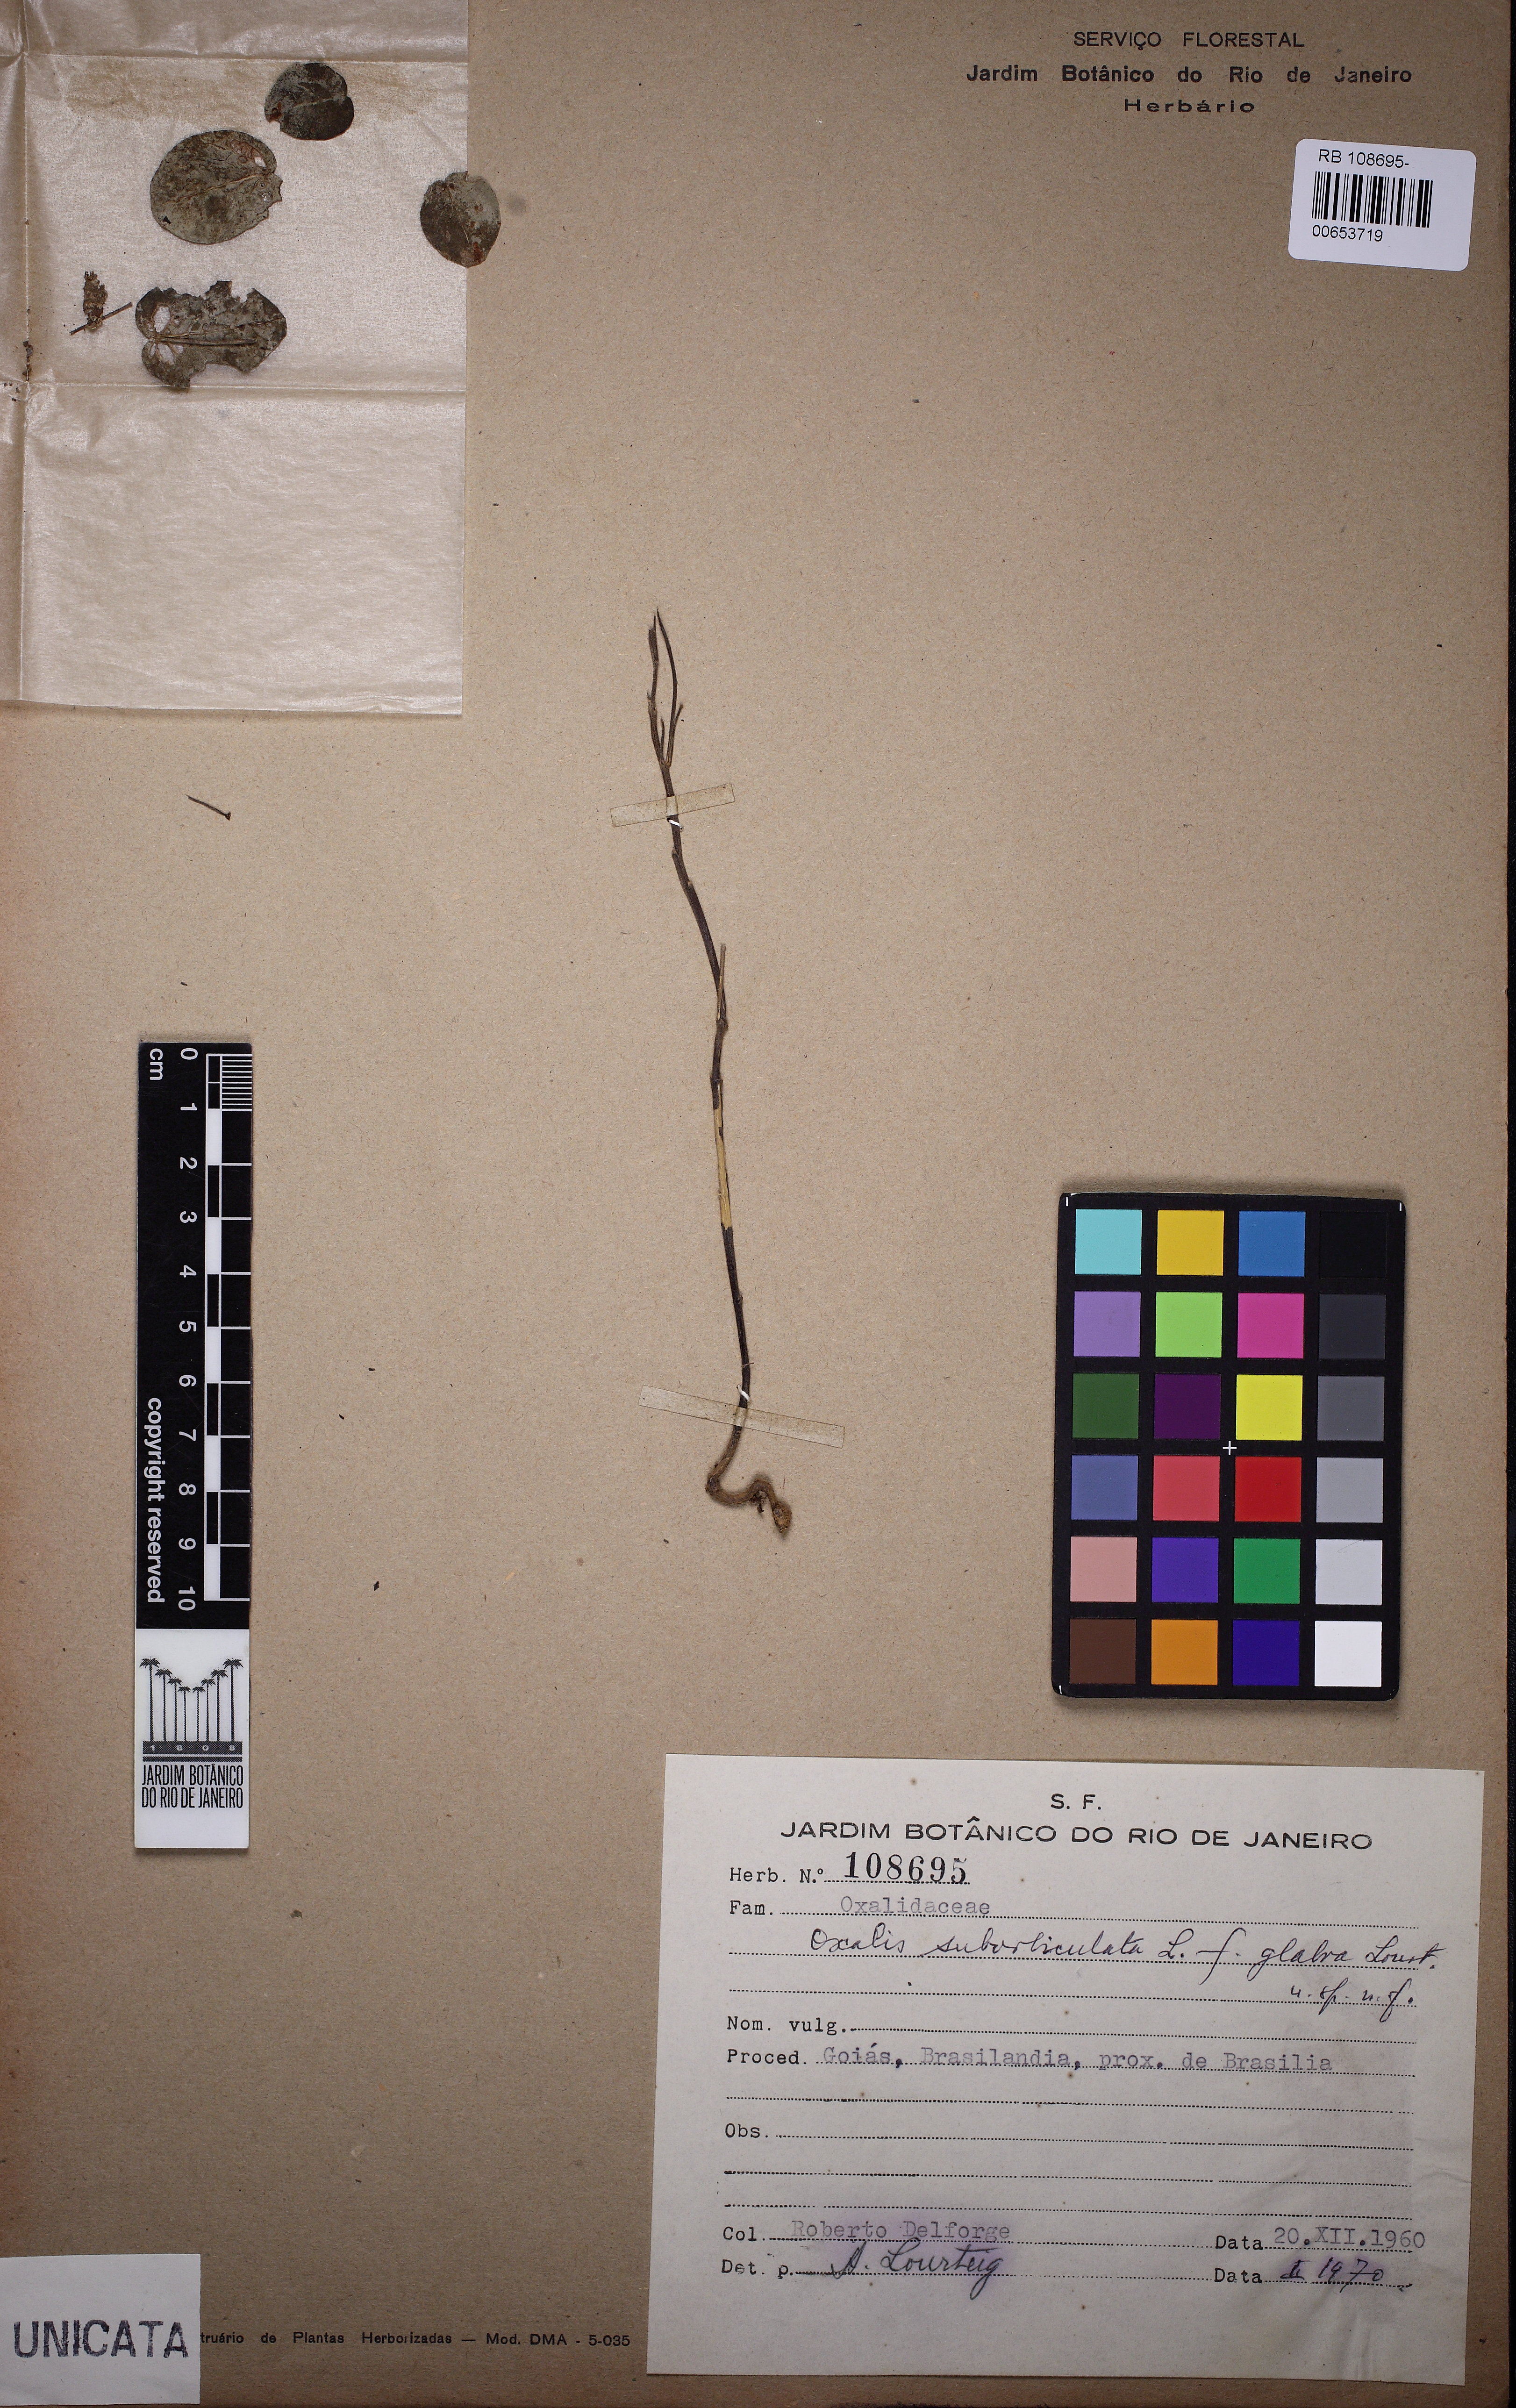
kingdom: Plantae
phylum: Tracheophyta
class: Magnoliopsida
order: Oxalidales
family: Oxalidaceae
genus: Oxalis
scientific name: Oxalis suborbiculata
